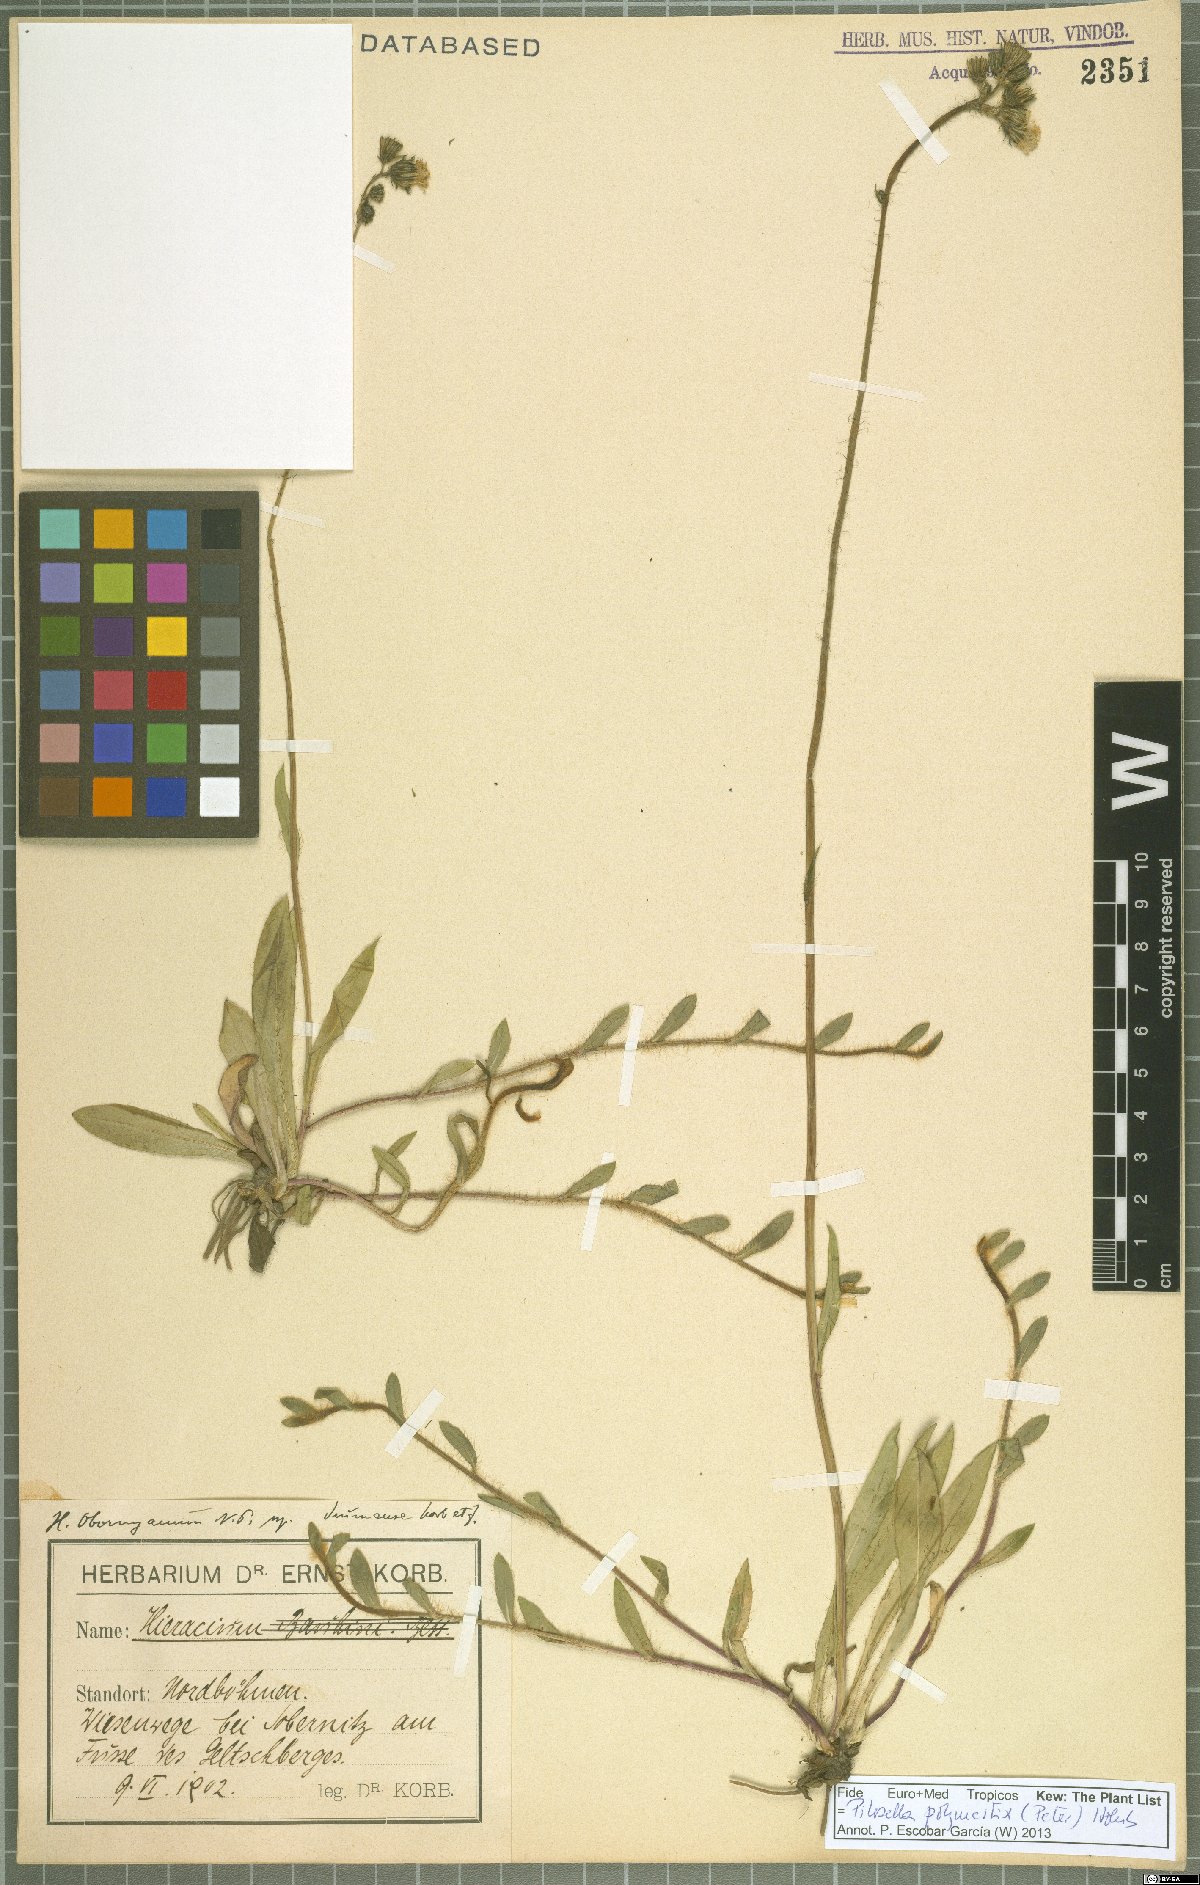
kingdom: Plantae
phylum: Tracheophyta
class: Magnoliopsida
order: Asterales
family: Asteraceae
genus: Pilosella
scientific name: Pilosella polymastix
